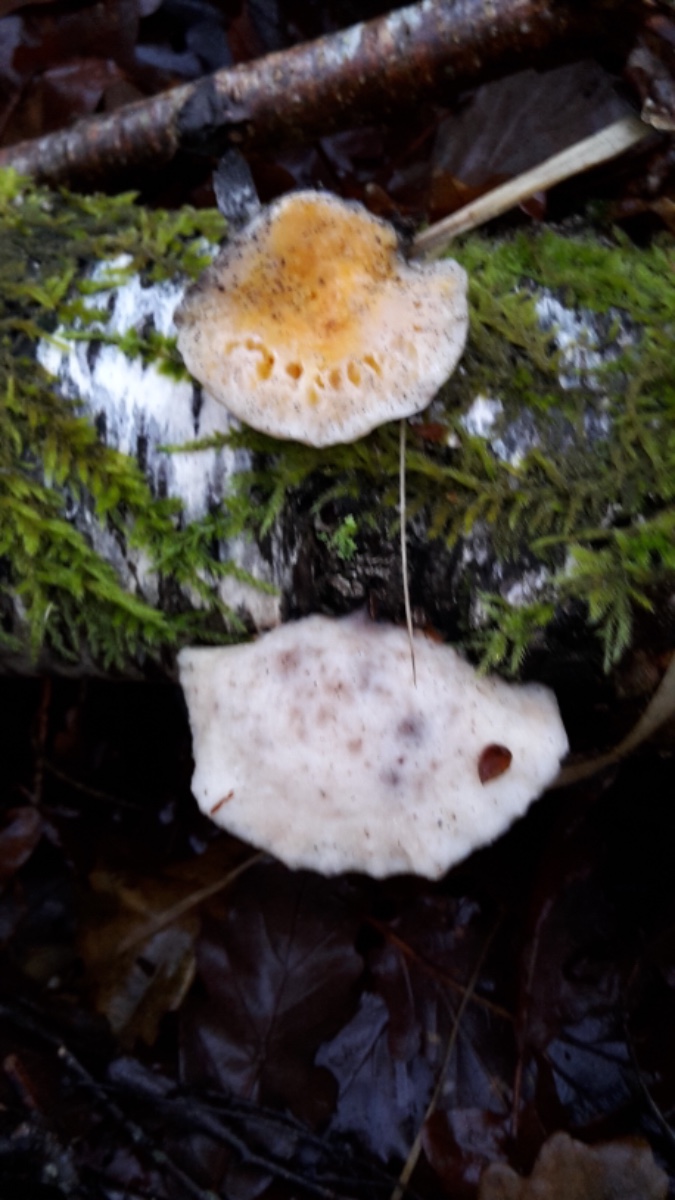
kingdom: Fungi
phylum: Ascomycota
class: Sordariomycetes
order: Hypocreales
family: Hypocreaceae
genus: Protocrea
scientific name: Protocrea pallida
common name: bleg kødkerne
